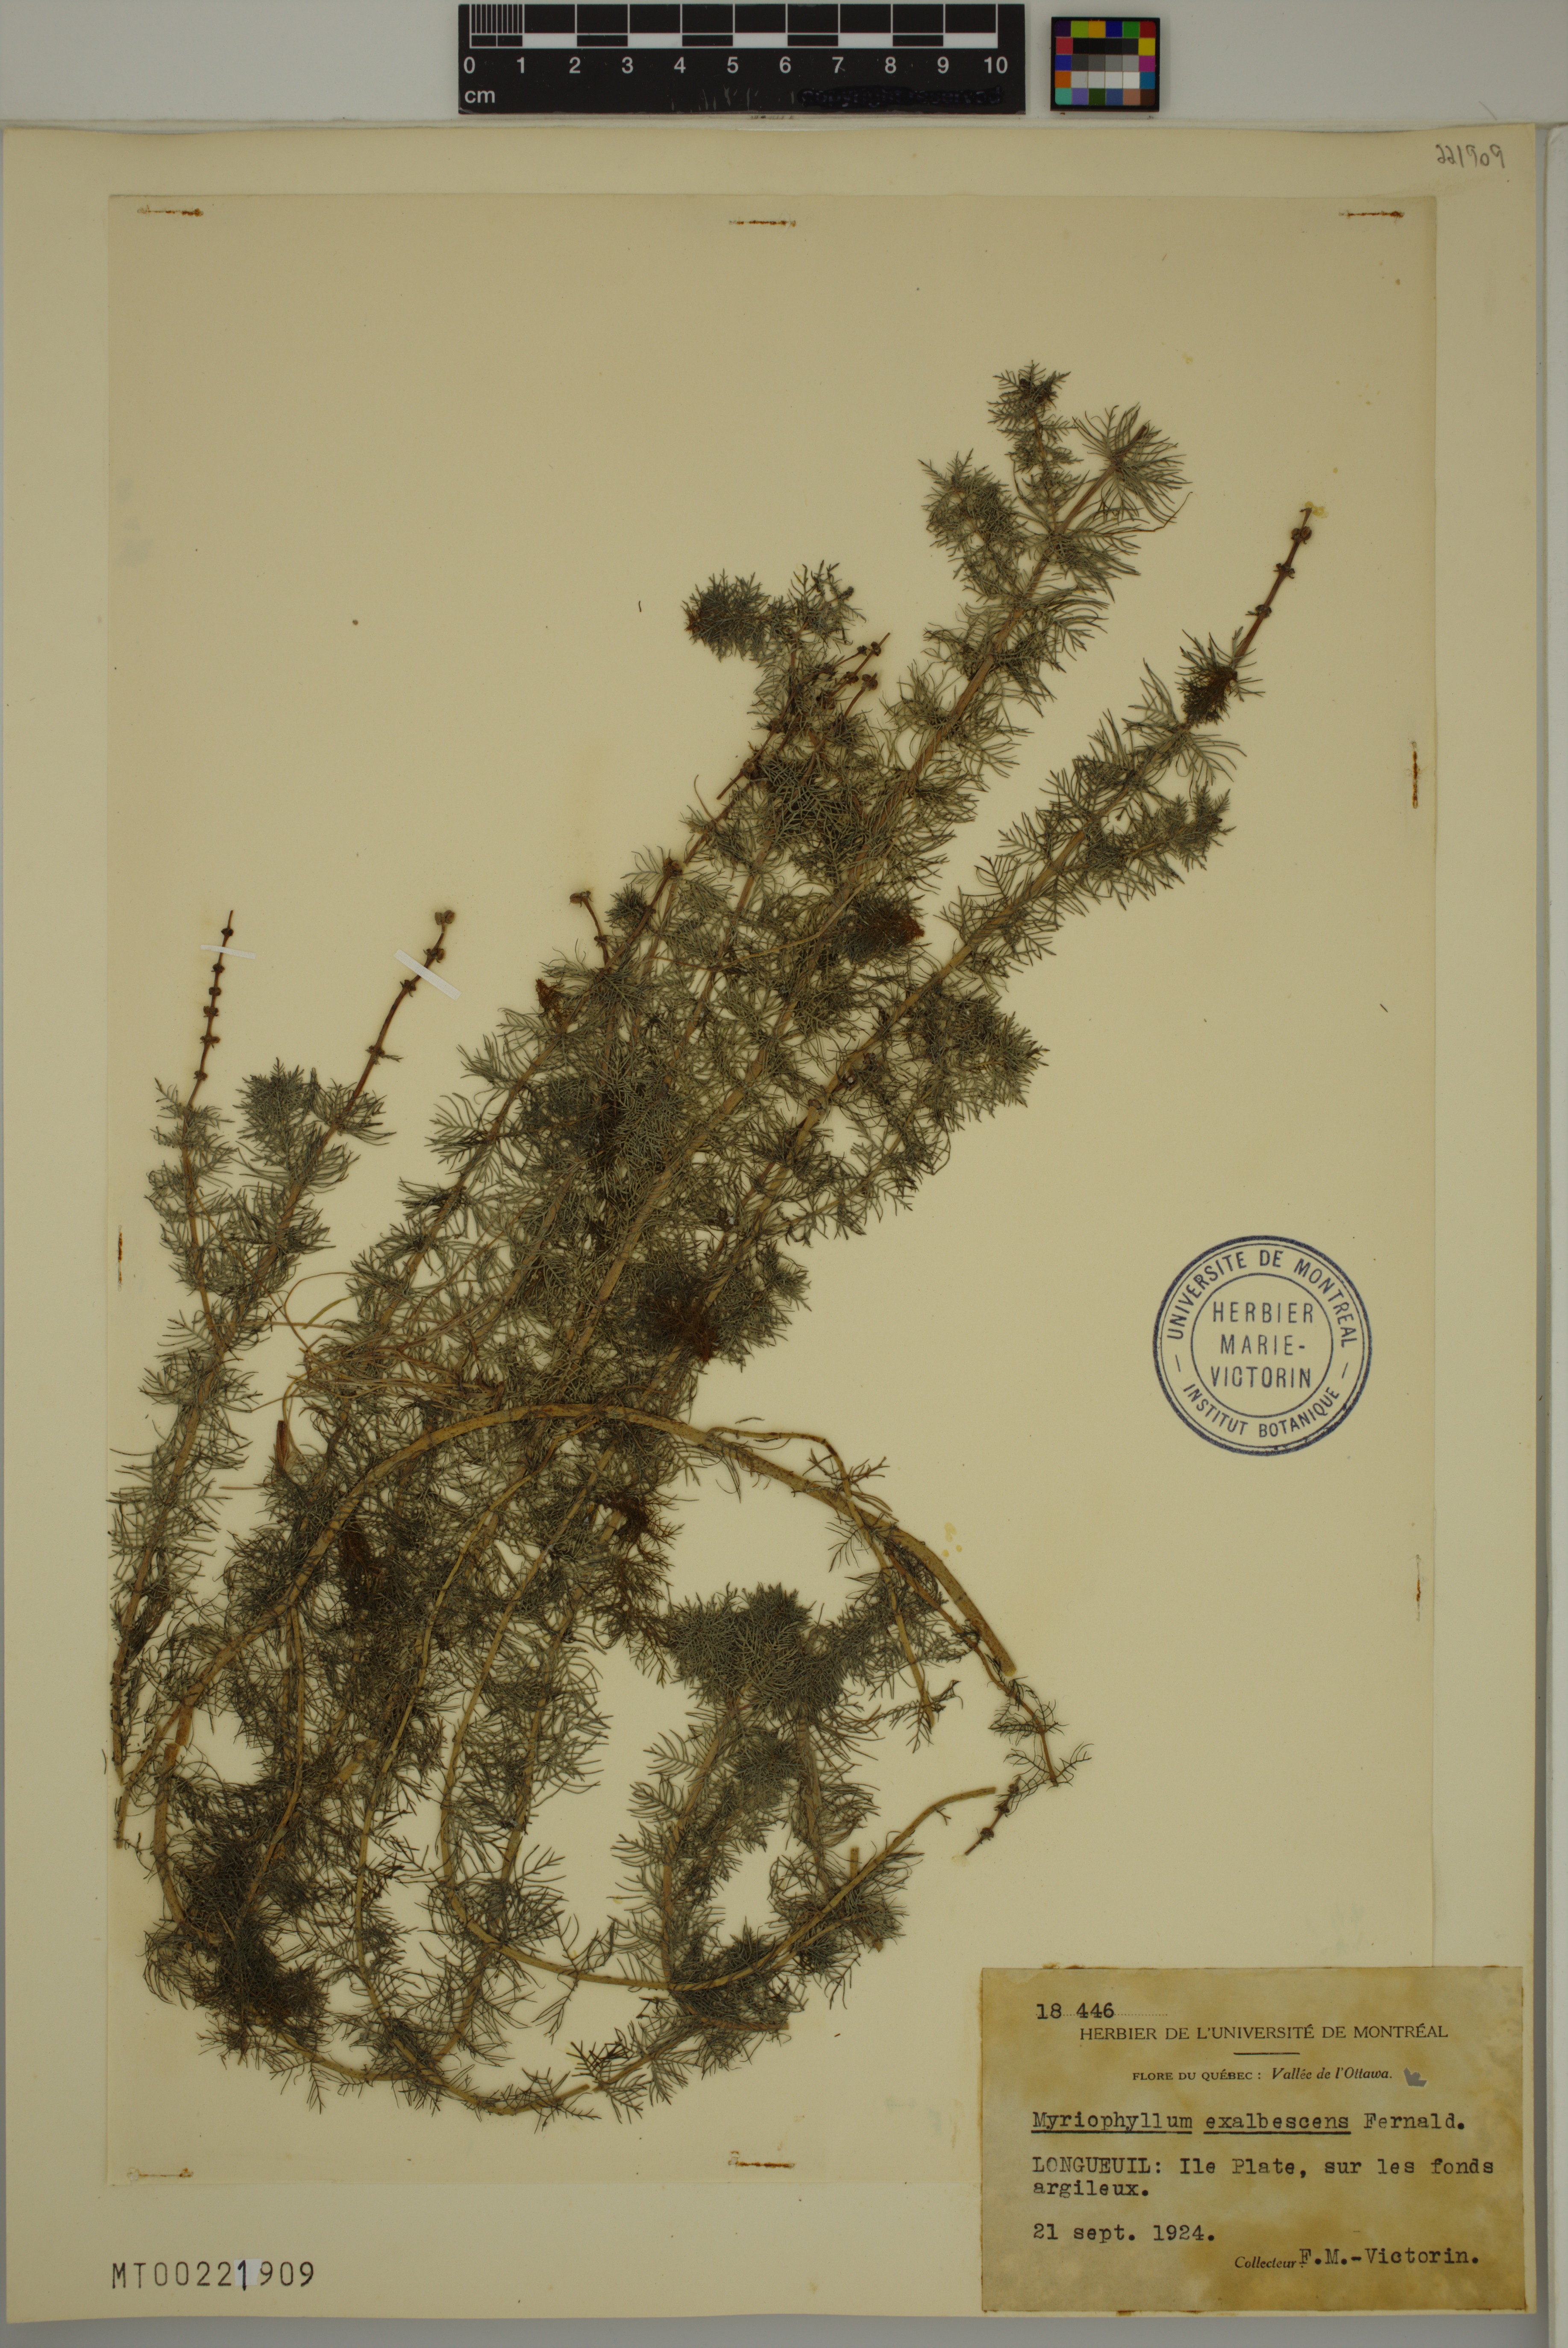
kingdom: Plantae
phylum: Tracheophyta
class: Magnoliopsida
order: Saxifragales
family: Haloragaceae
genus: Myriophyllum
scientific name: Myriophyllum sibiricum
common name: Siberian water-milfoil
